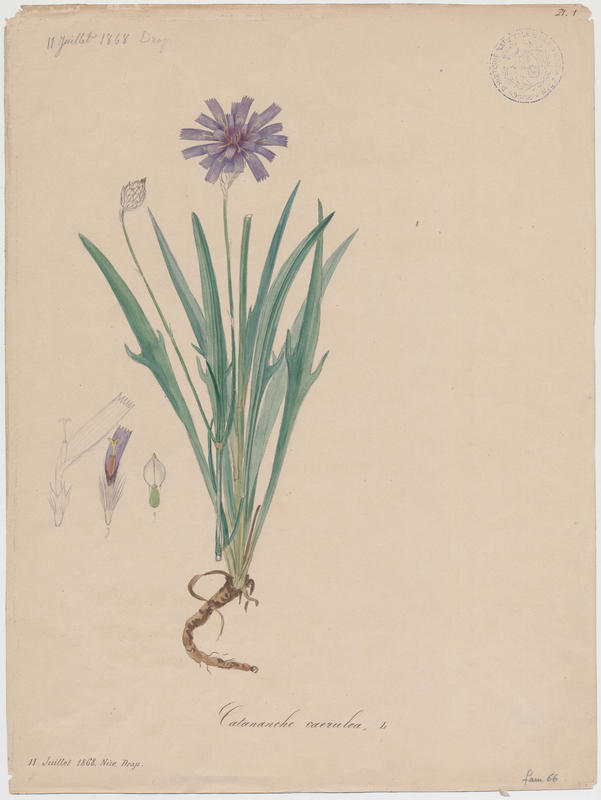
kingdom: Plantae
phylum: Tracheophyta
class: Magnoliopsida
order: Asterales
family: Asteraceae
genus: Catananche
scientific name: Catananche caerulea
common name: Blue cupidone
